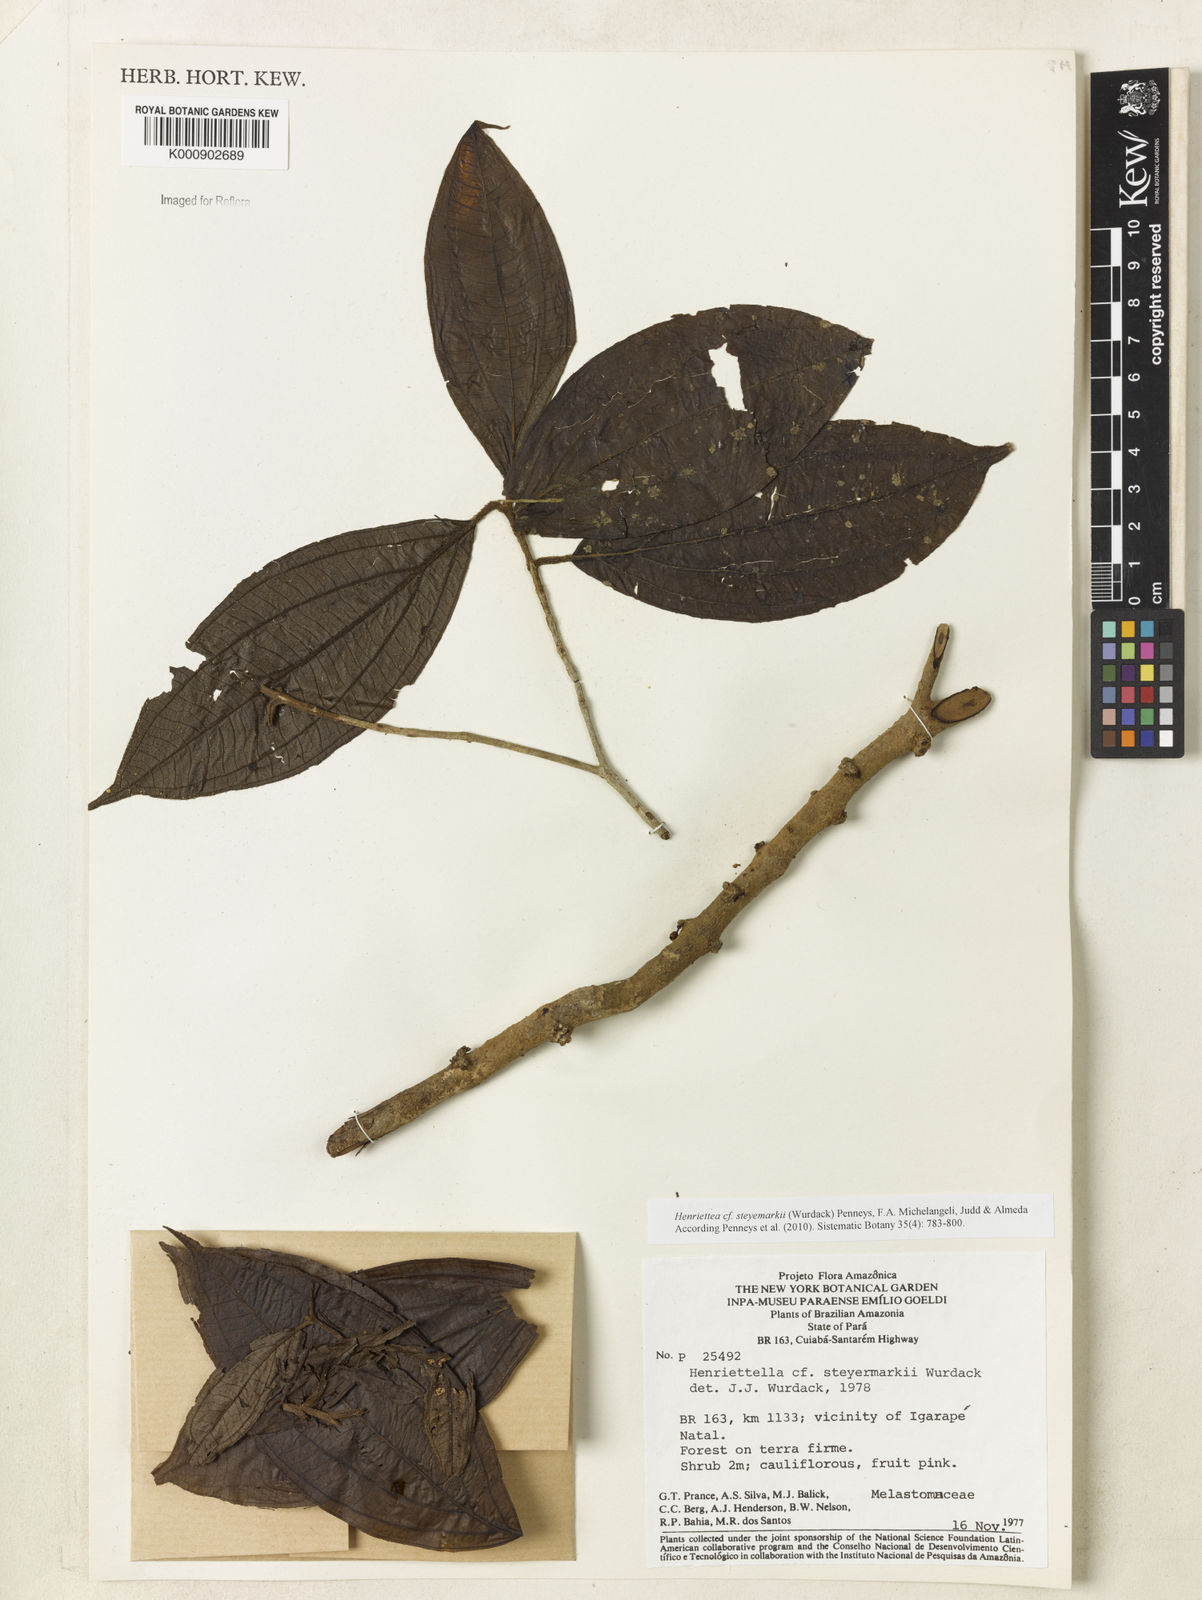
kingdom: Plantae
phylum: Tracheophyta
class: Magnoliopsida
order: Myrtales
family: Melastomataceae
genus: Henriettea
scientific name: Henriettea sylvestris
